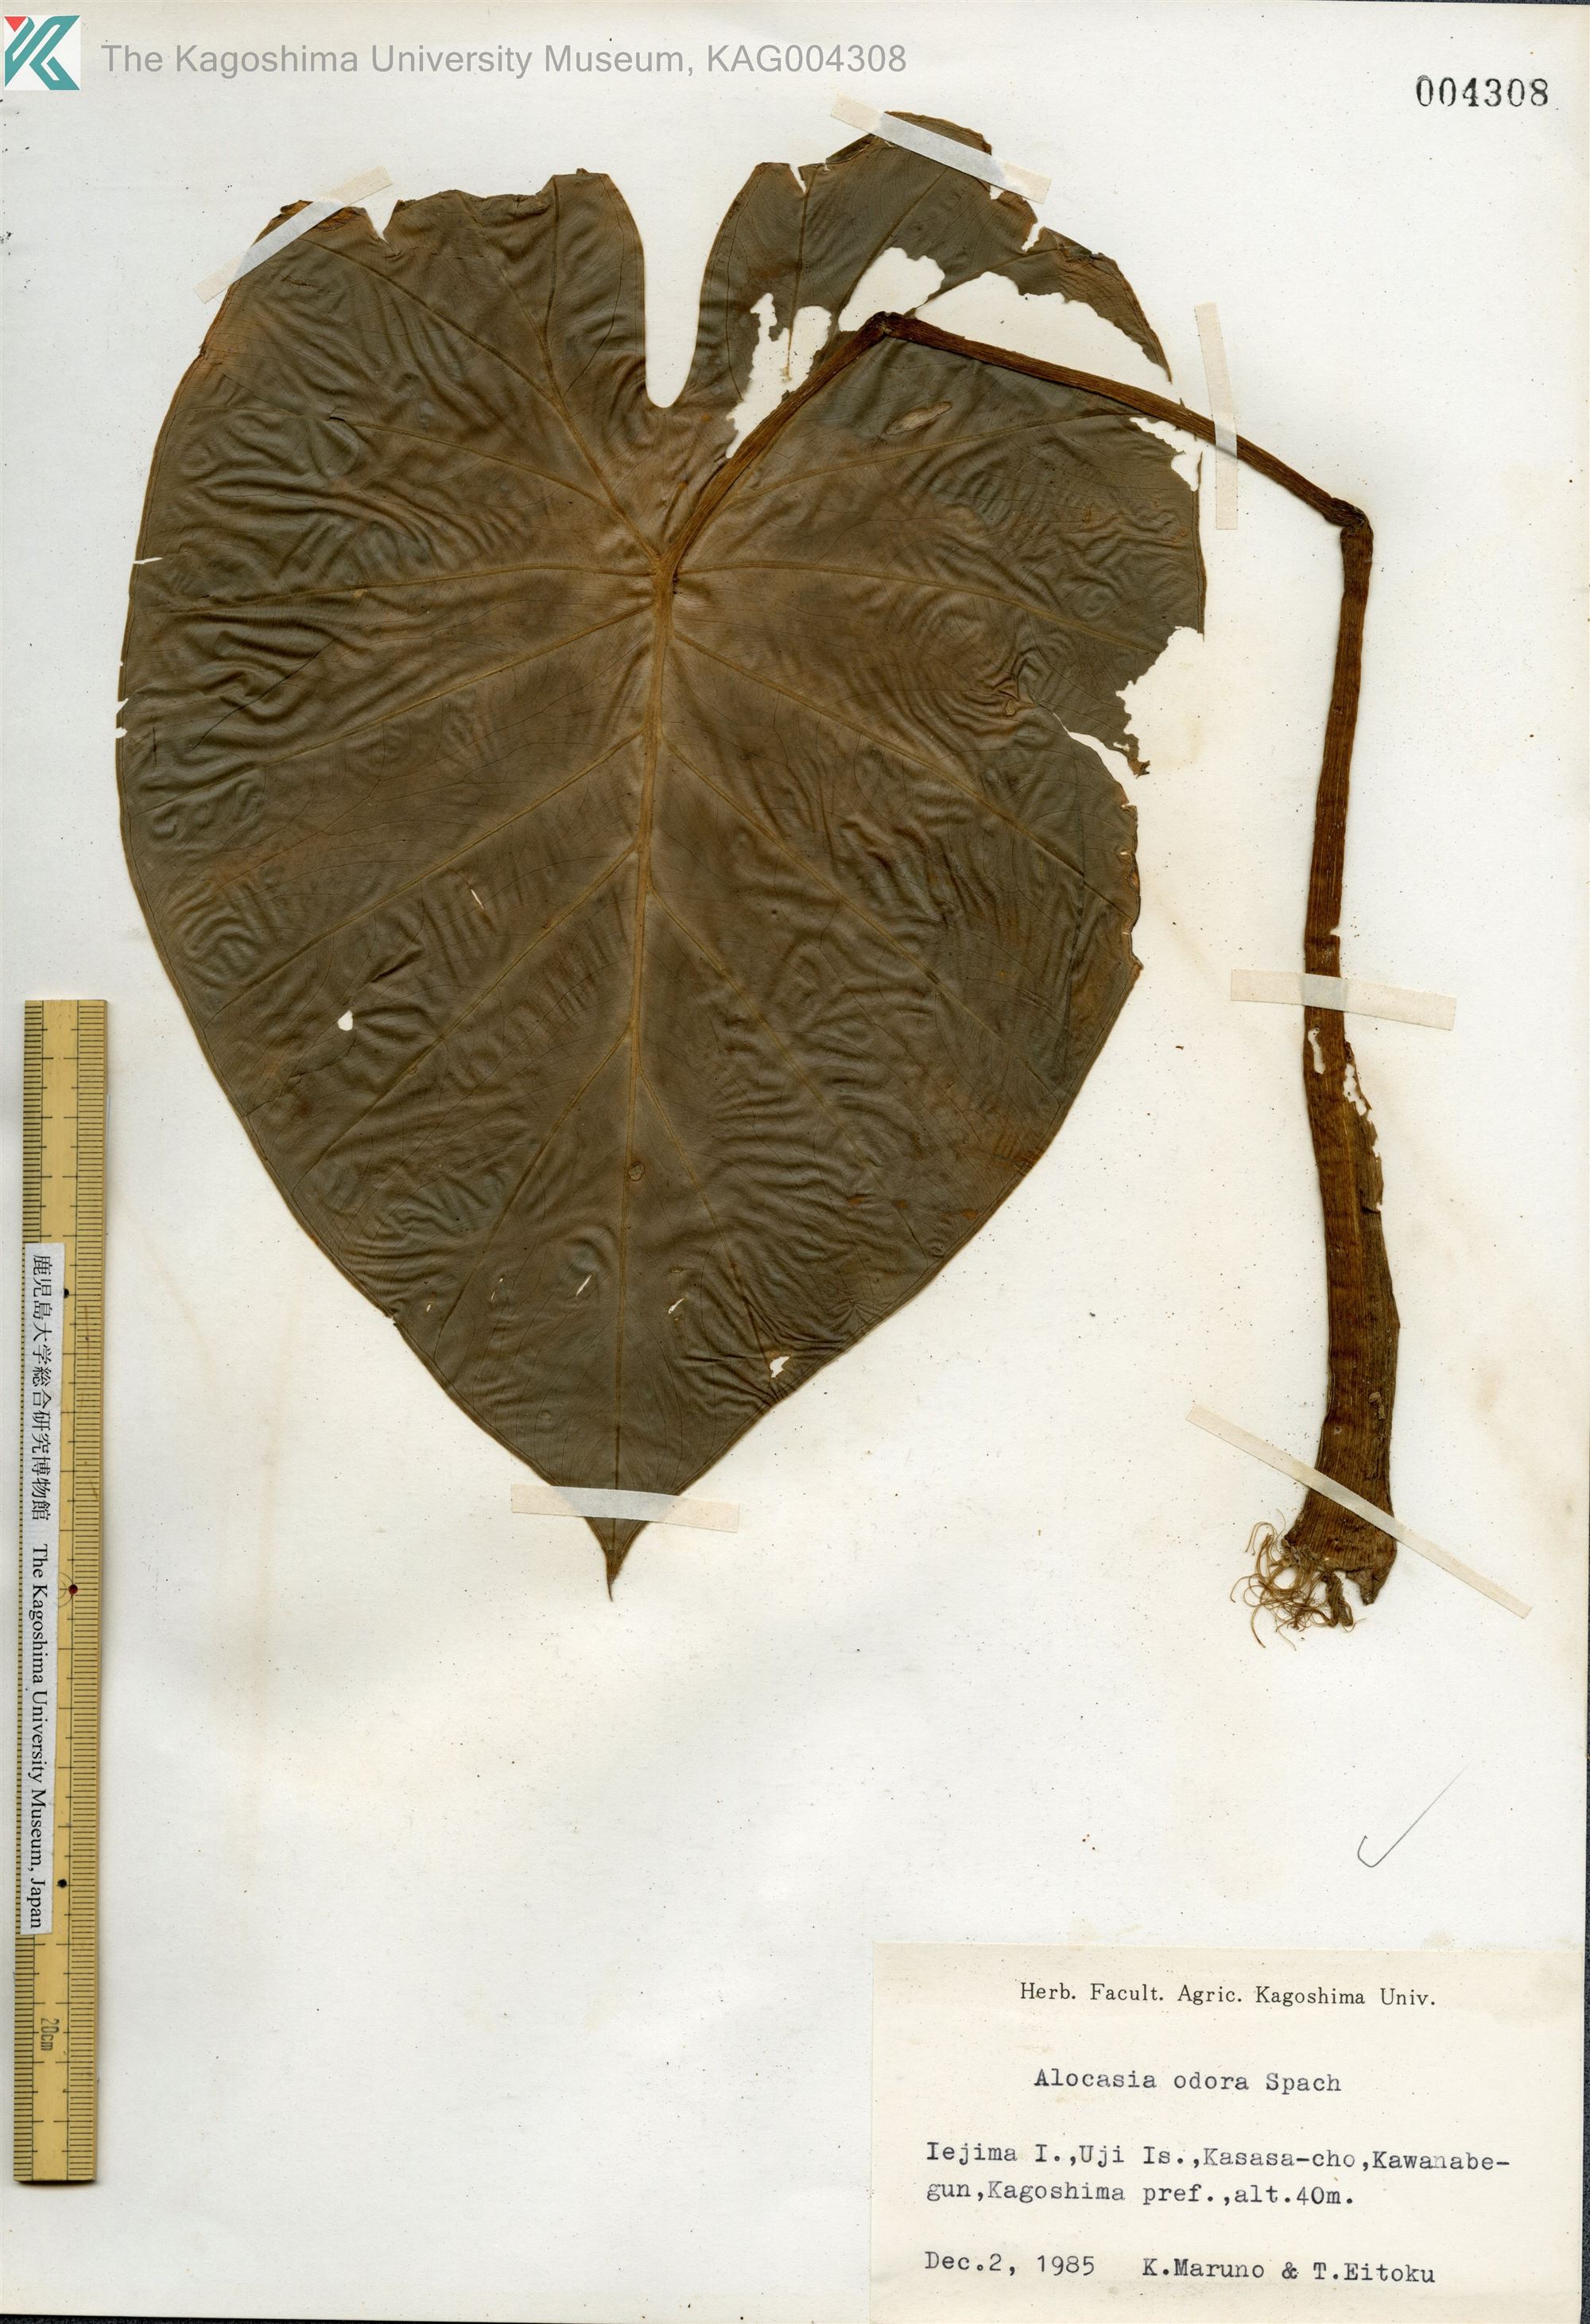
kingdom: Plantae
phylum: Tracheophyta
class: Liliopsida
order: Alismatales
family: Araceae
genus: Alocasia
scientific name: Alocasia odora
